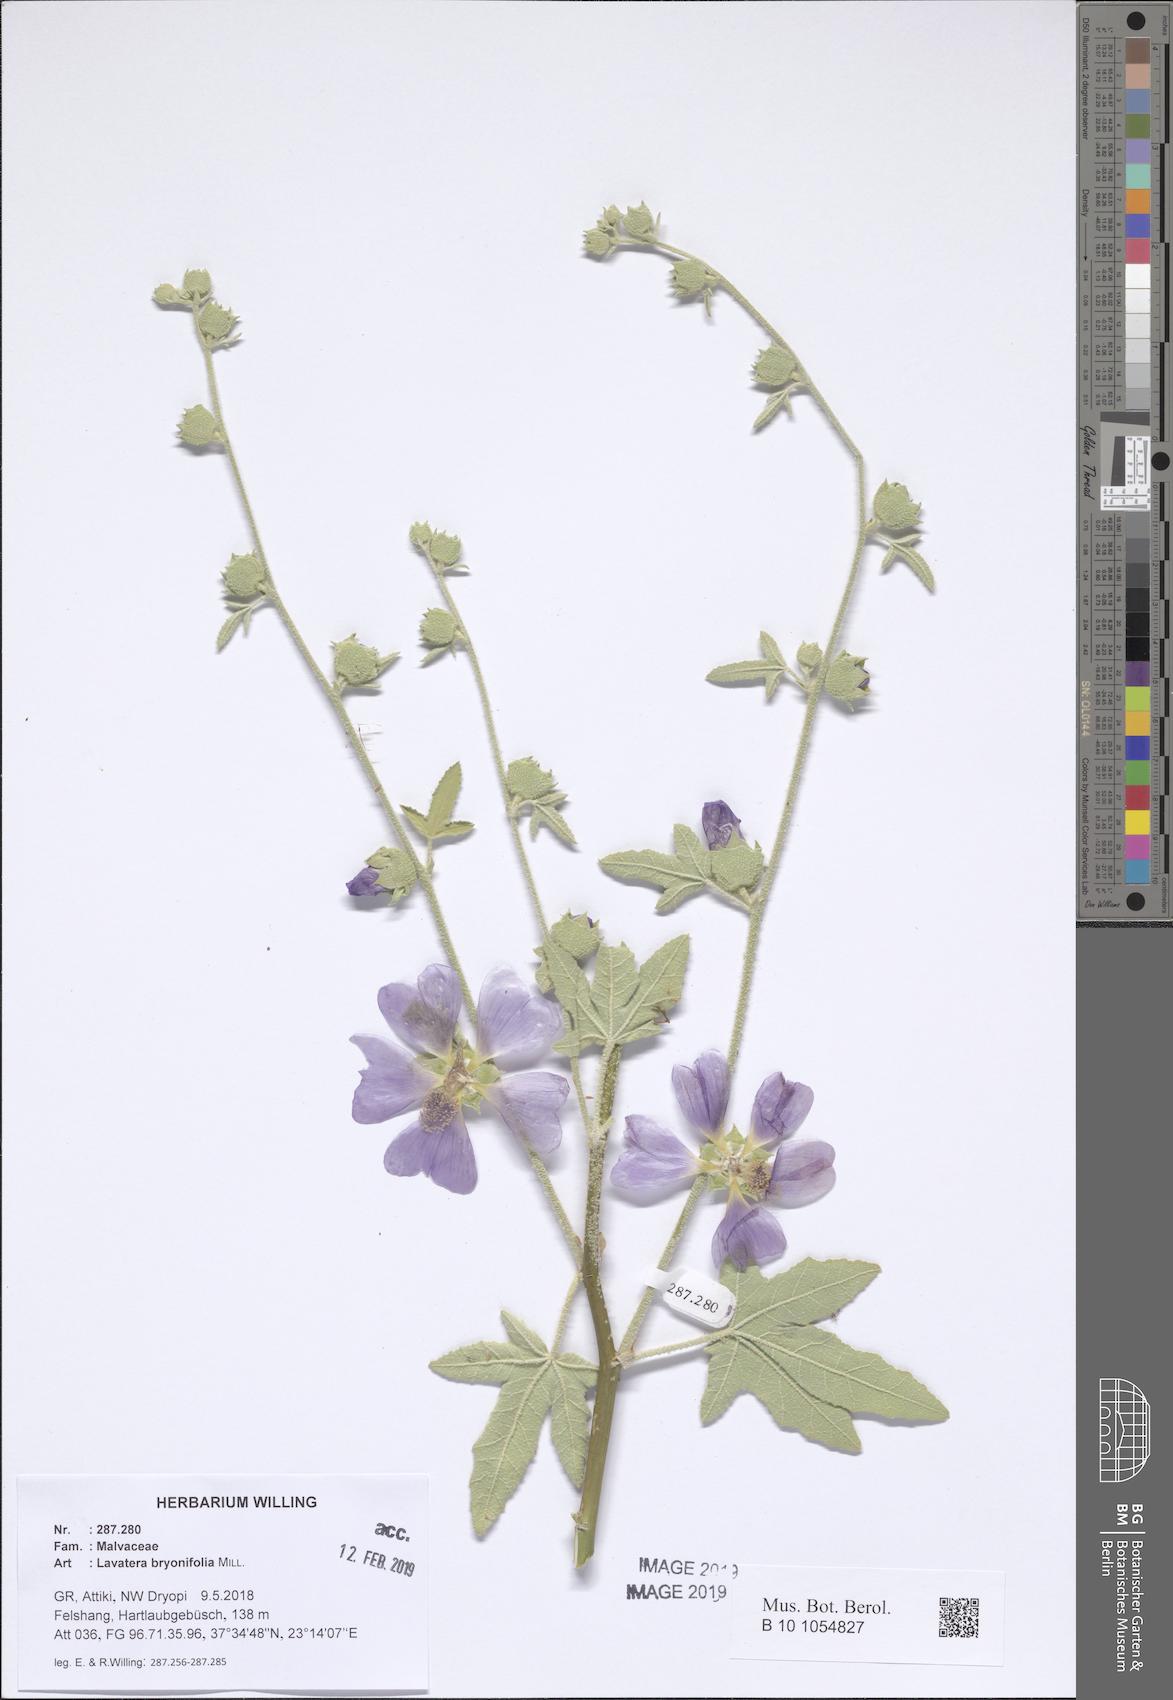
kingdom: Plantae
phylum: Tracheophyta
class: Magnoliopsida
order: Malvales
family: Malvaceae
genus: Malva
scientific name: Malva unguiculata
